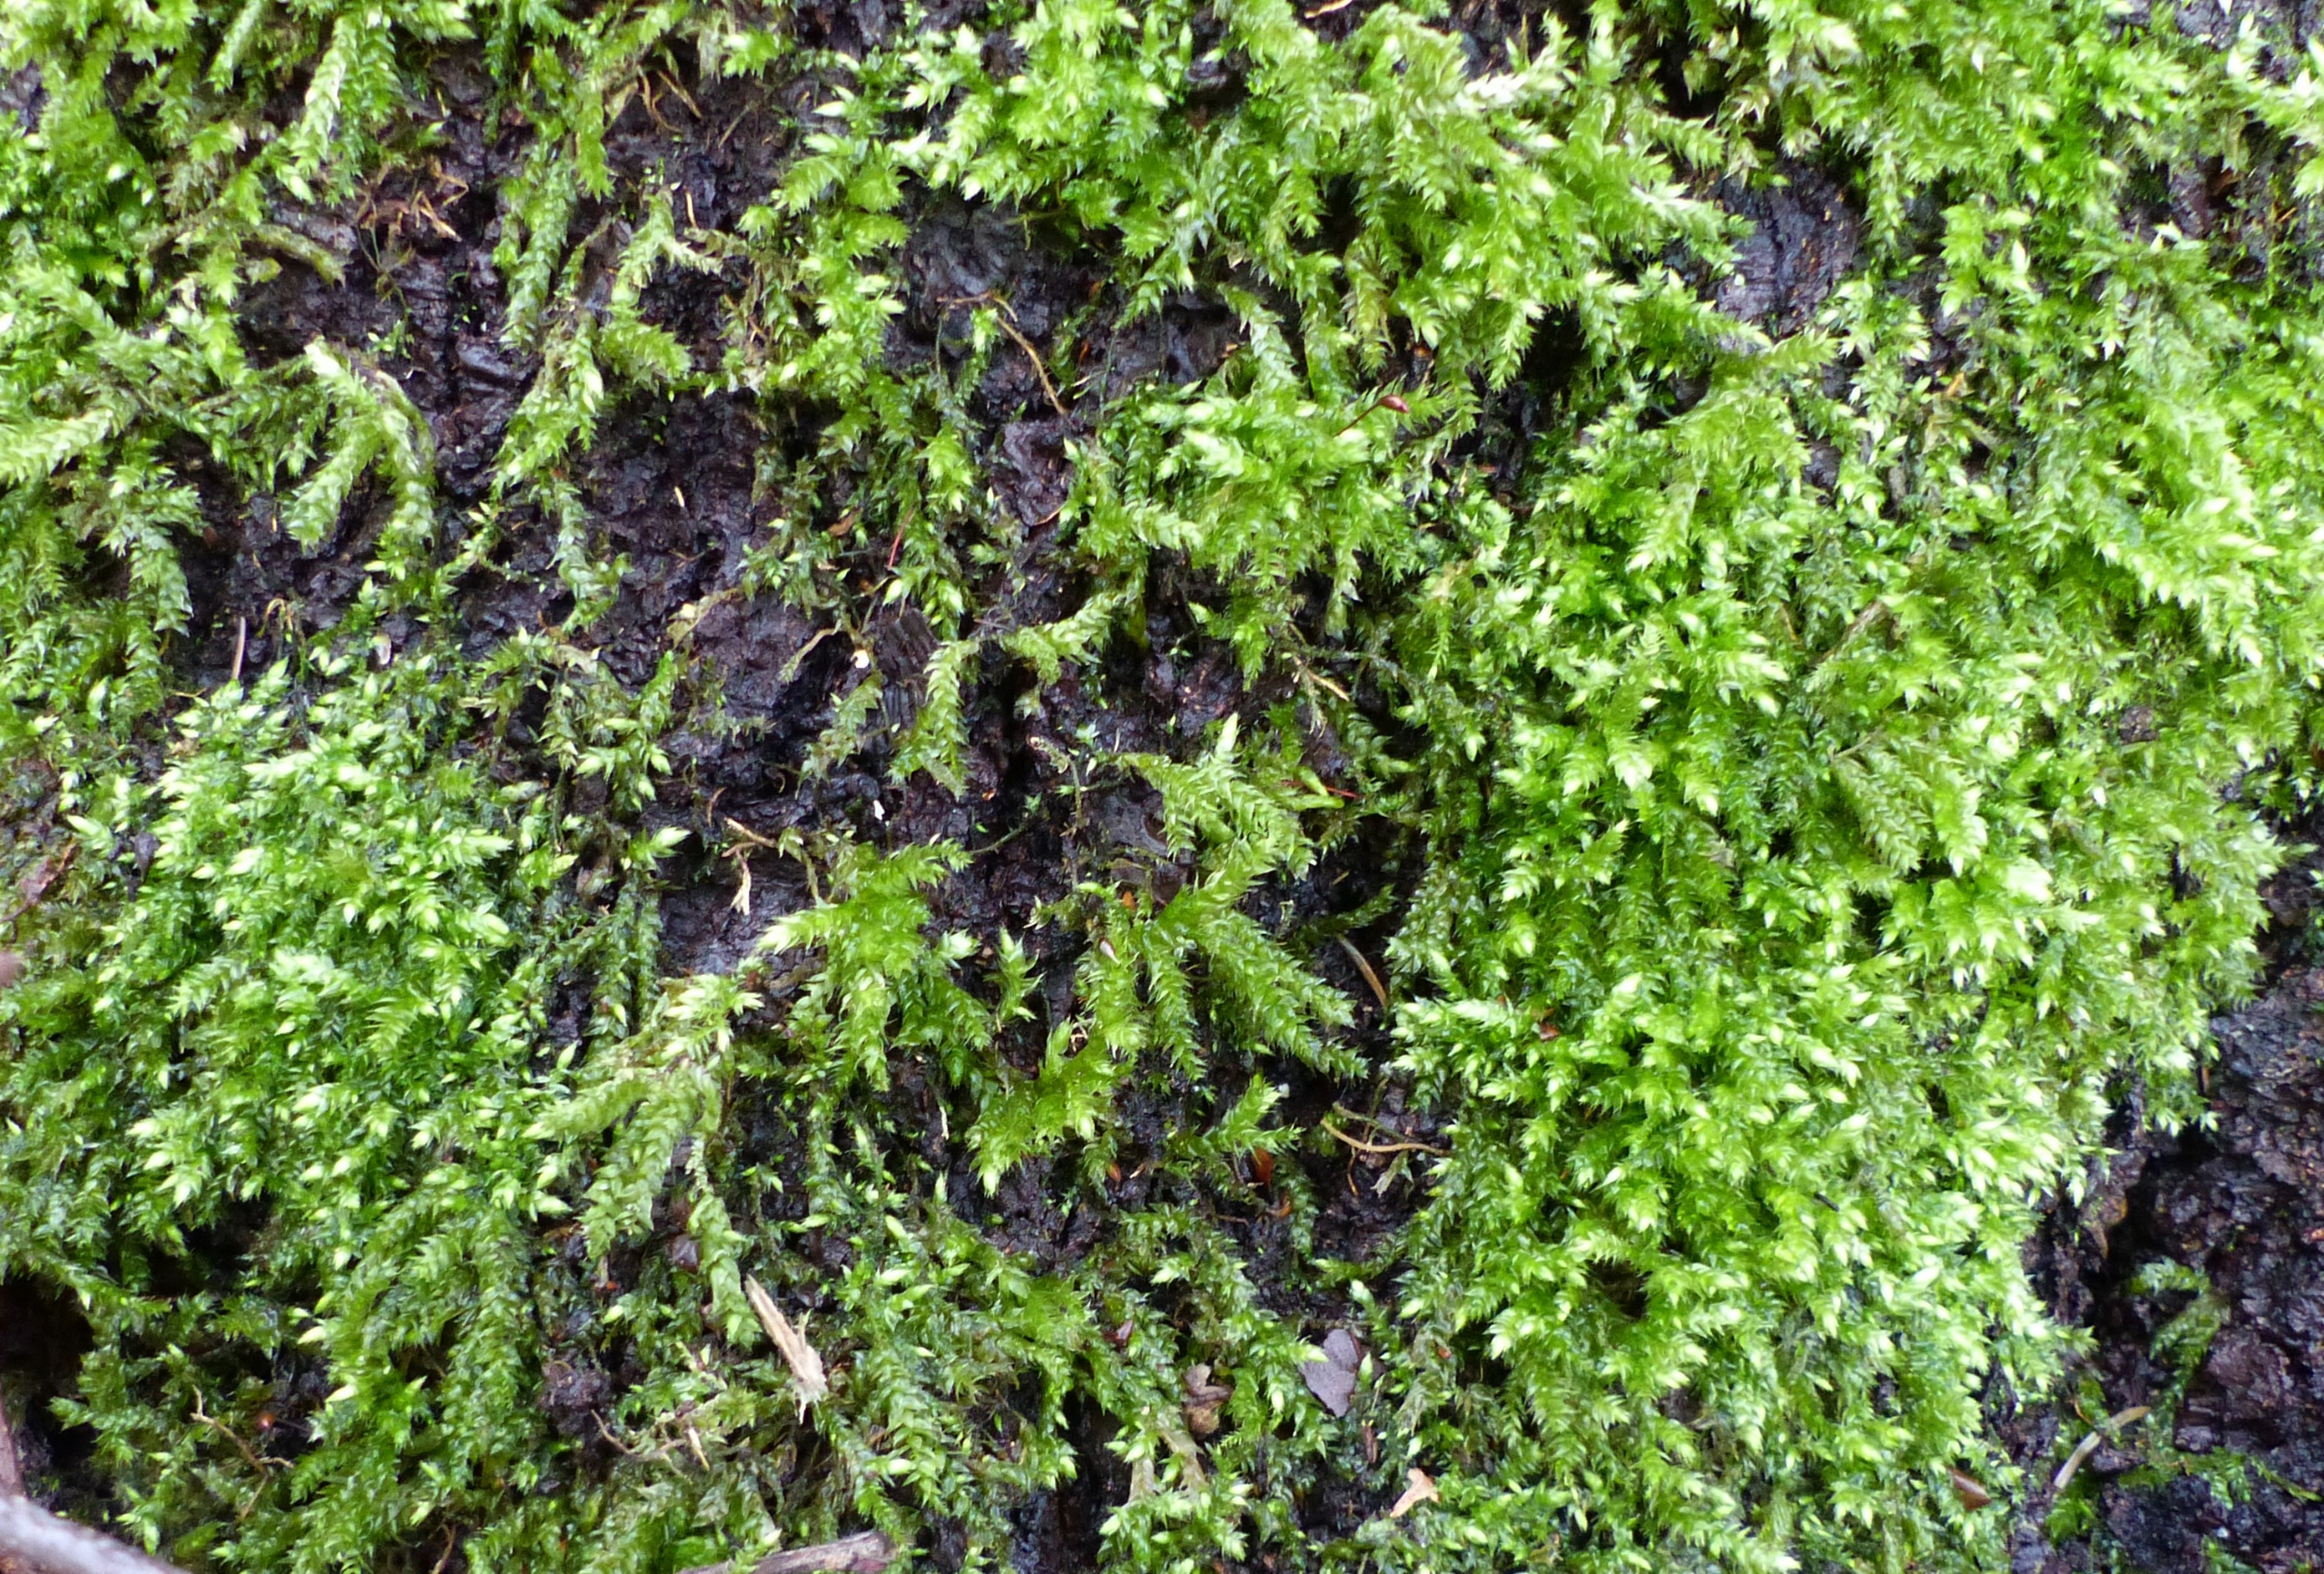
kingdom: Plantae
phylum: Bryophyta
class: Bryopsida
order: Hypnales
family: Brachytheciaceae
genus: Brachythecium
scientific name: Brachythecium rutabulum
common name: Almindelig kortkapsel
